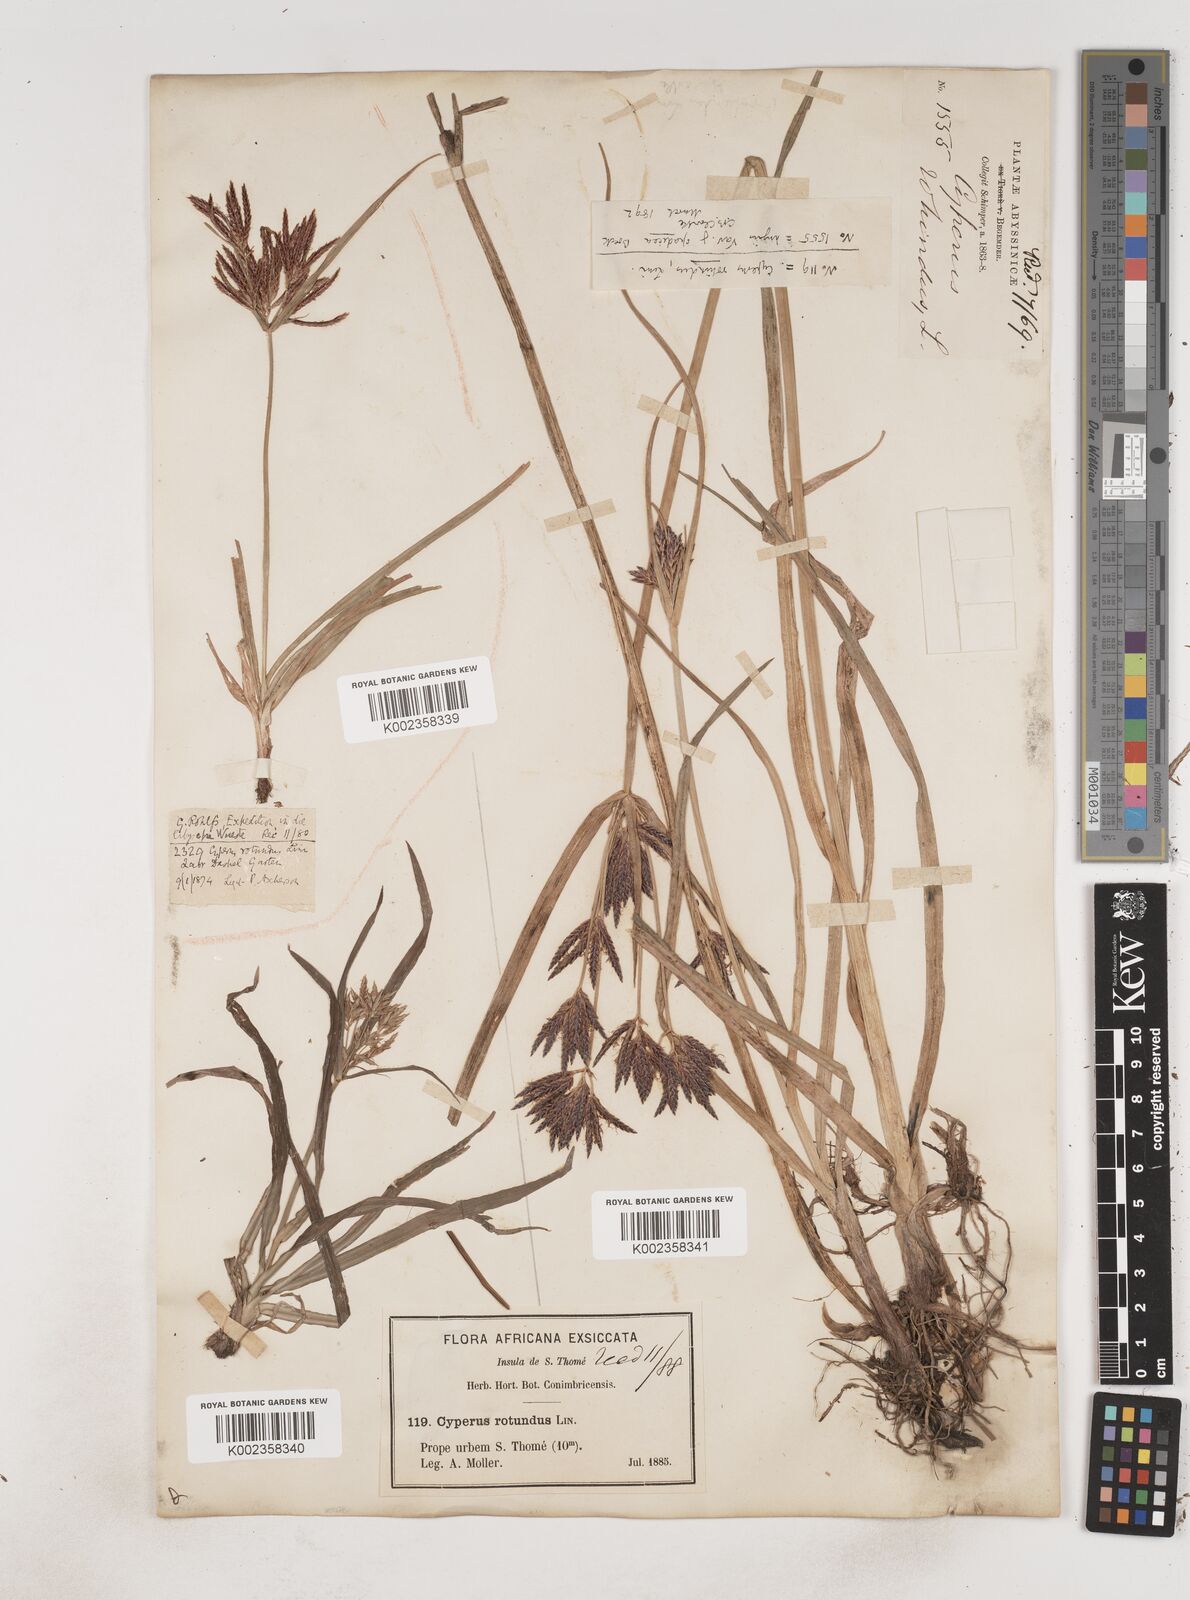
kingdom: Plantae
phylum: Tracheophyta
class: Liliopsida
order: Poales
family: Cyperaceae
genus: Cyperus
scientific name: Cyperus tuberosus
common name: Nut grass
